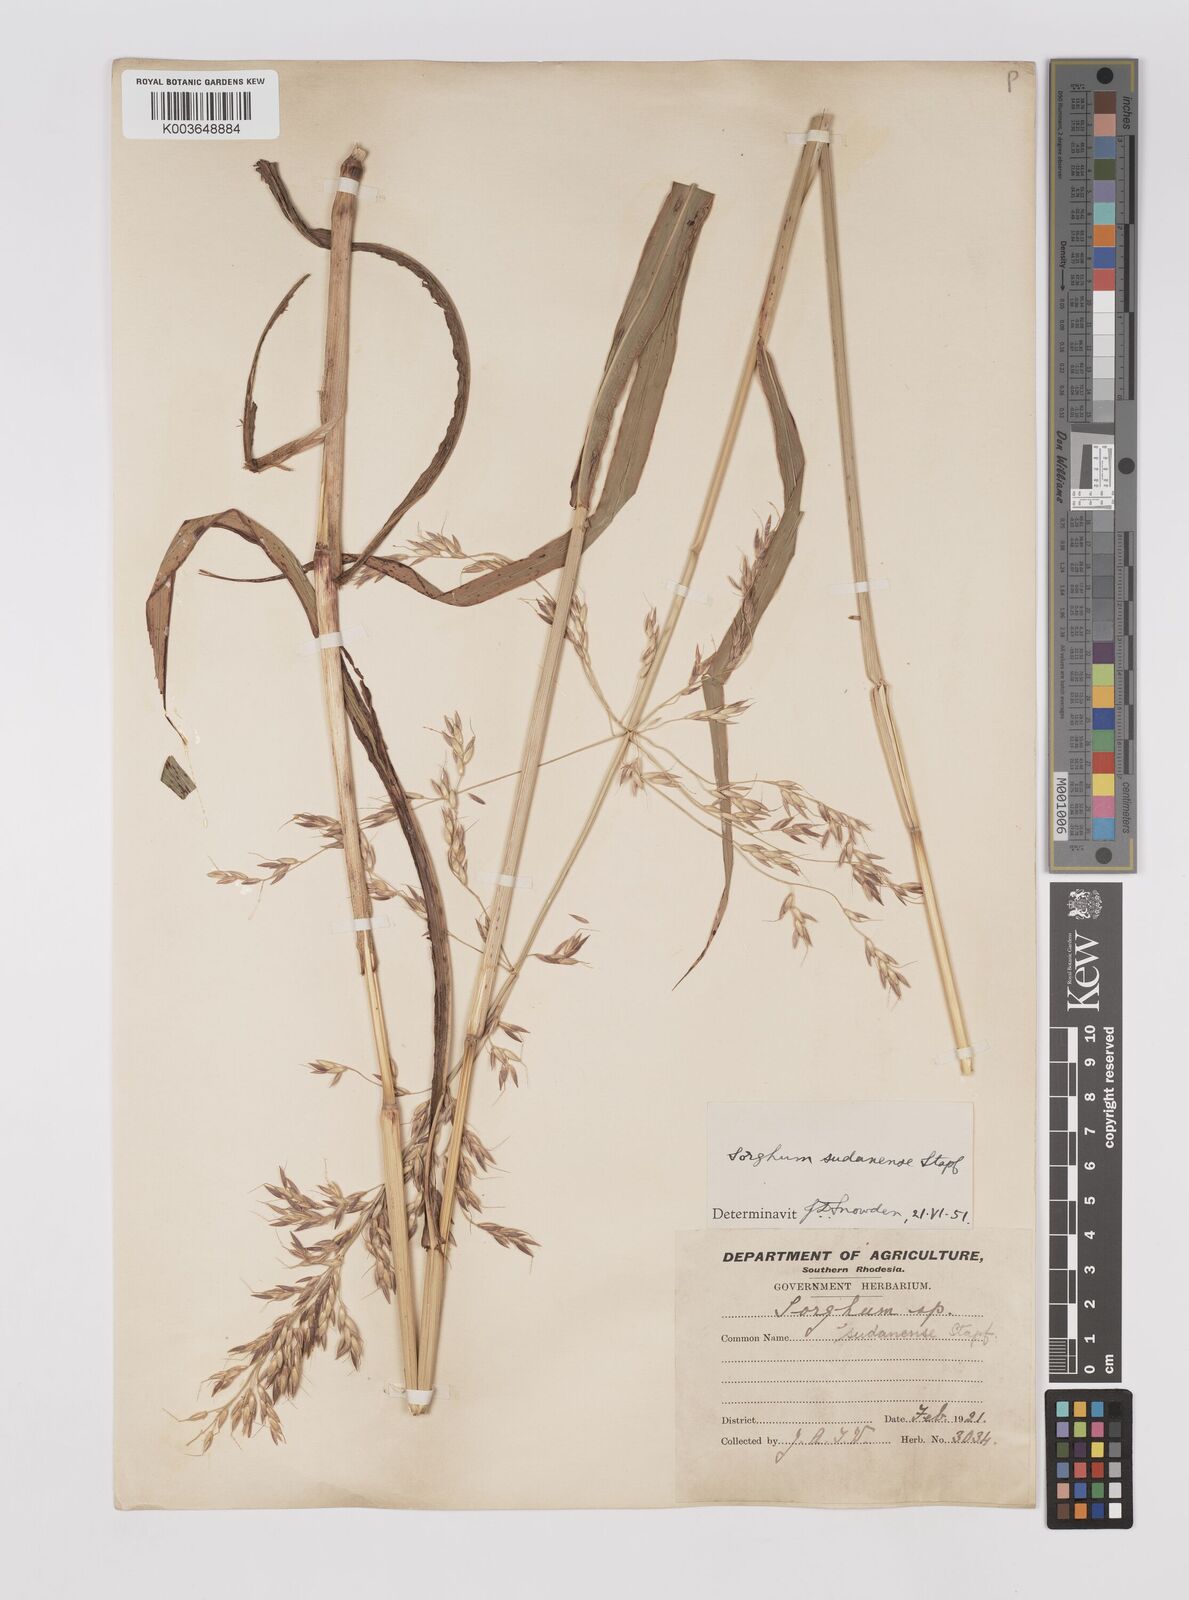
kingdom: Plantae
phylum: Tracheophyta
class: Liliopsida
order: Poales
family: Poaceae
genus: Sorghum
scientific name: Sorghum drummondii
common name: Sudangrass
